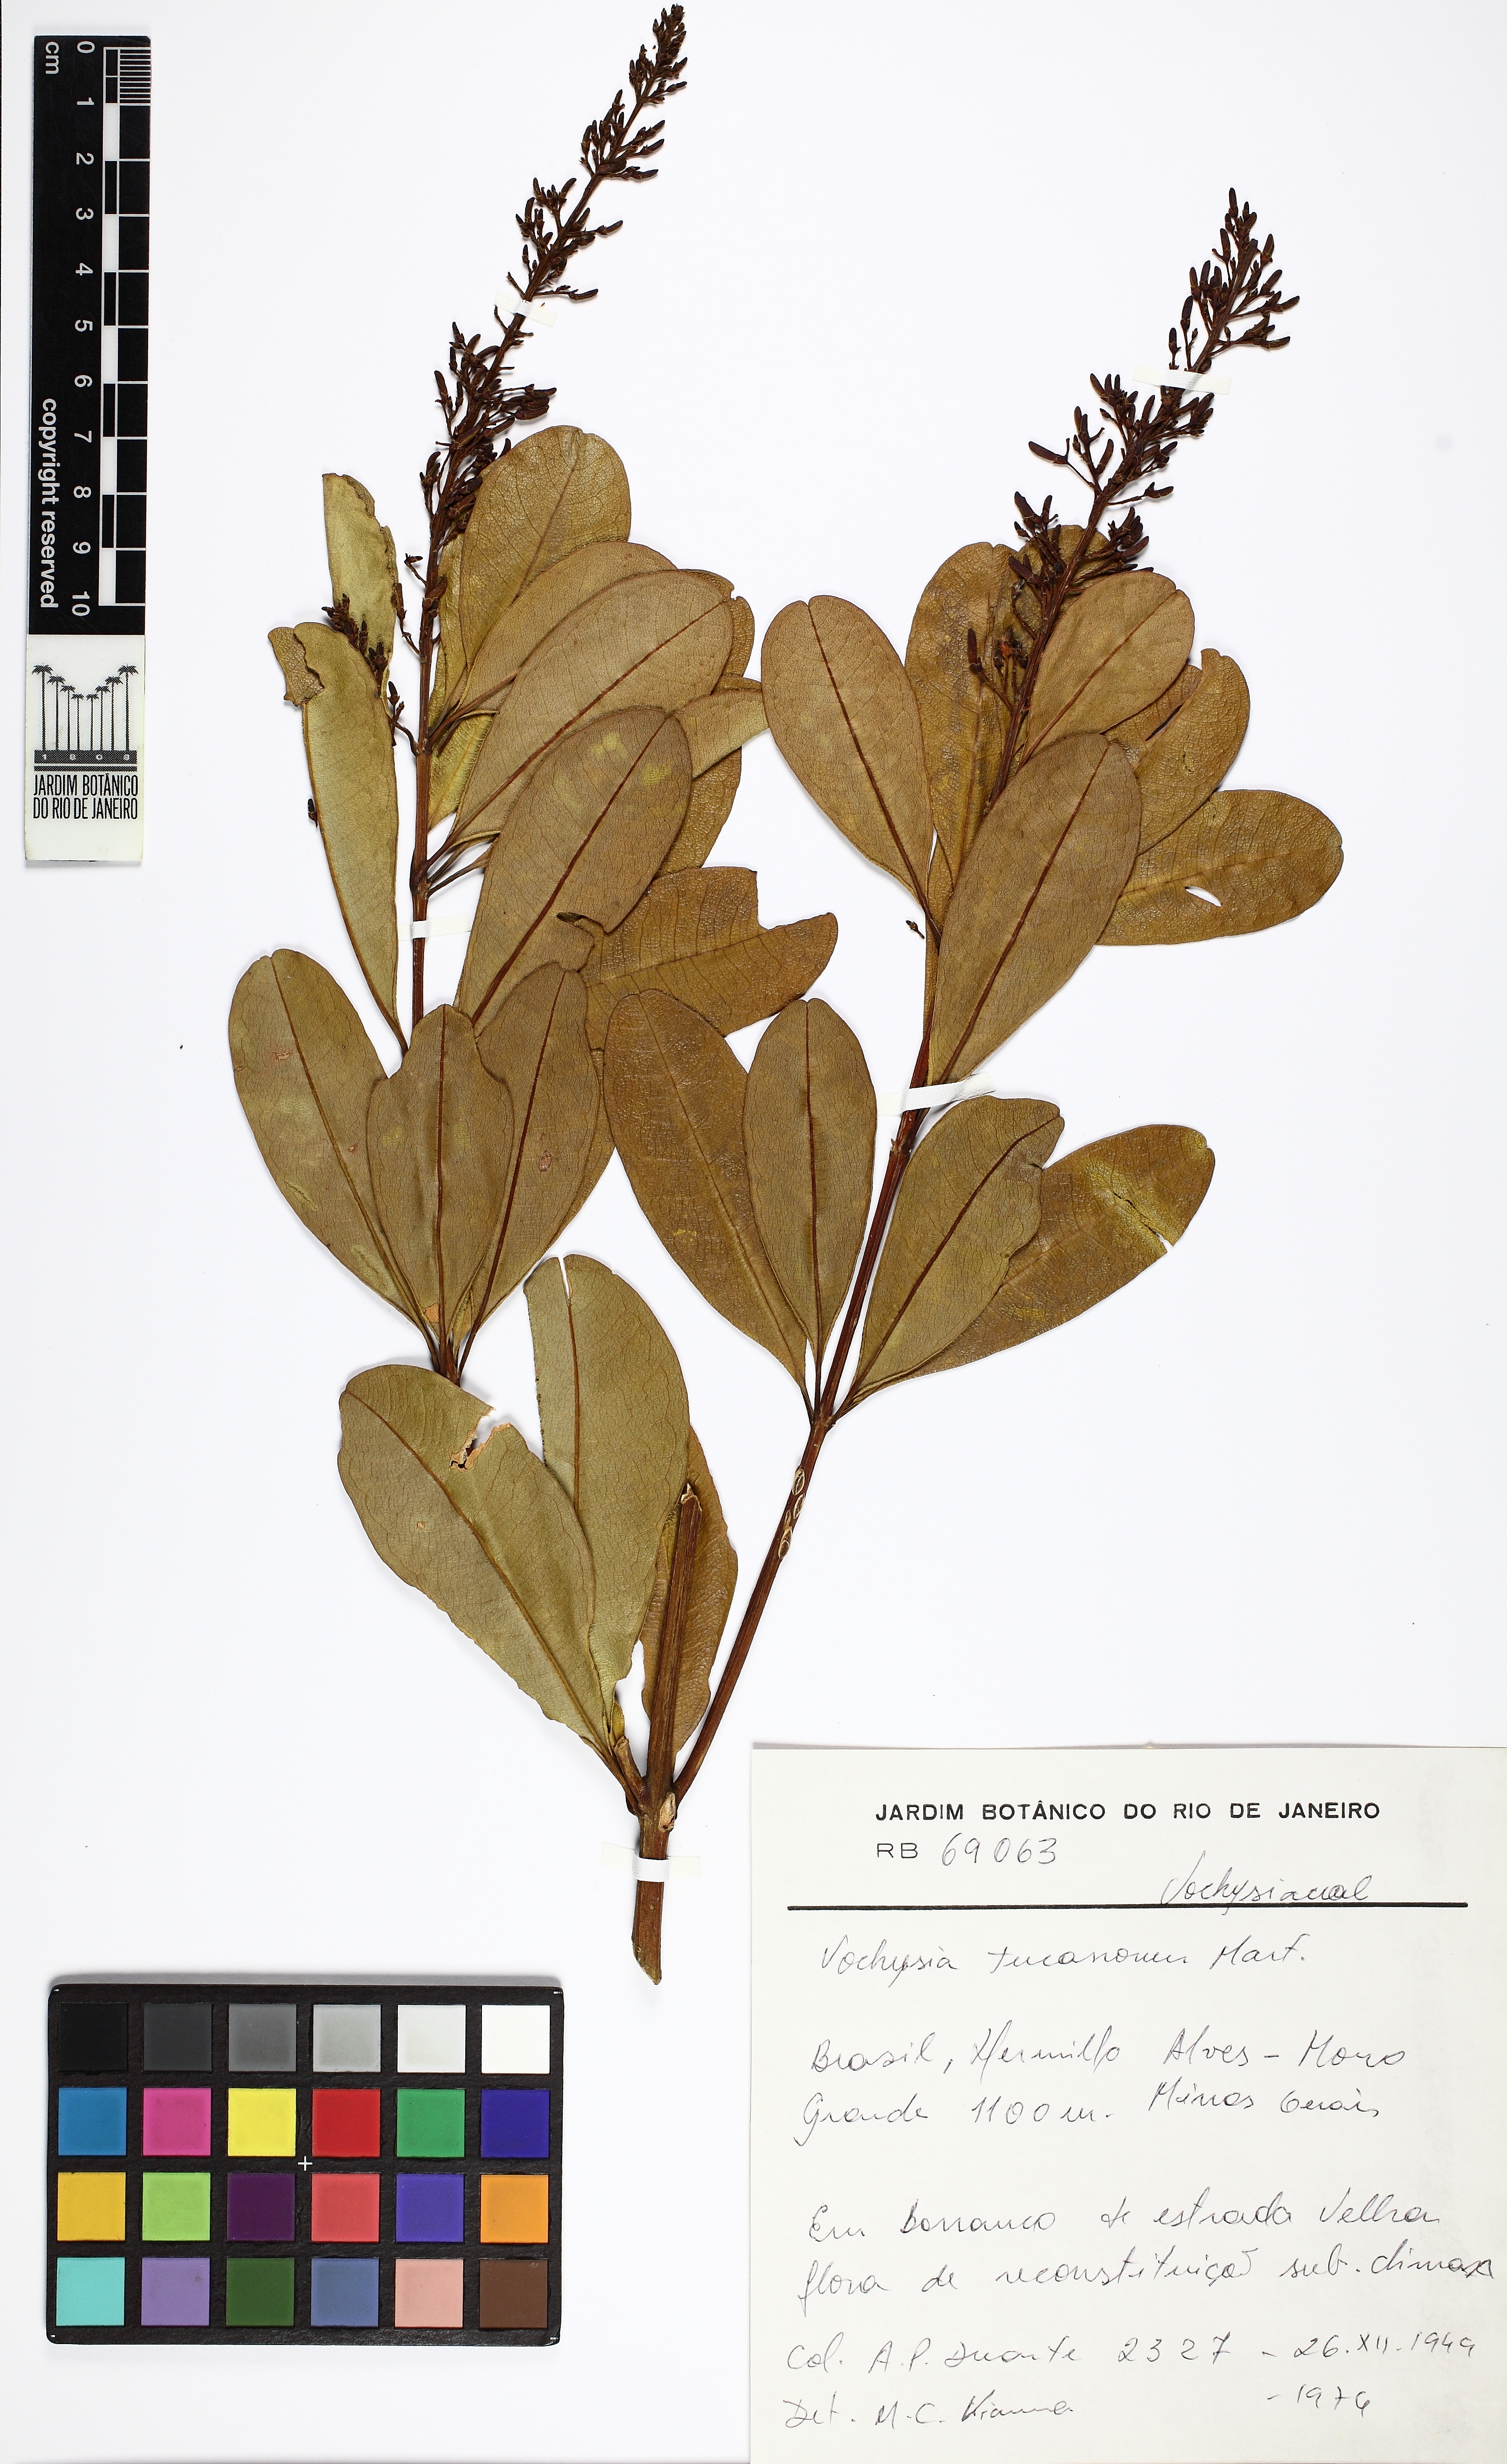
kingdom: Plantae
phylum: Tracheophyta
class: Magnoliopsida
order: Myrtales
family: Vochysiaceae
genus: Vochysia
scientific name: Vochysia tucanorum
